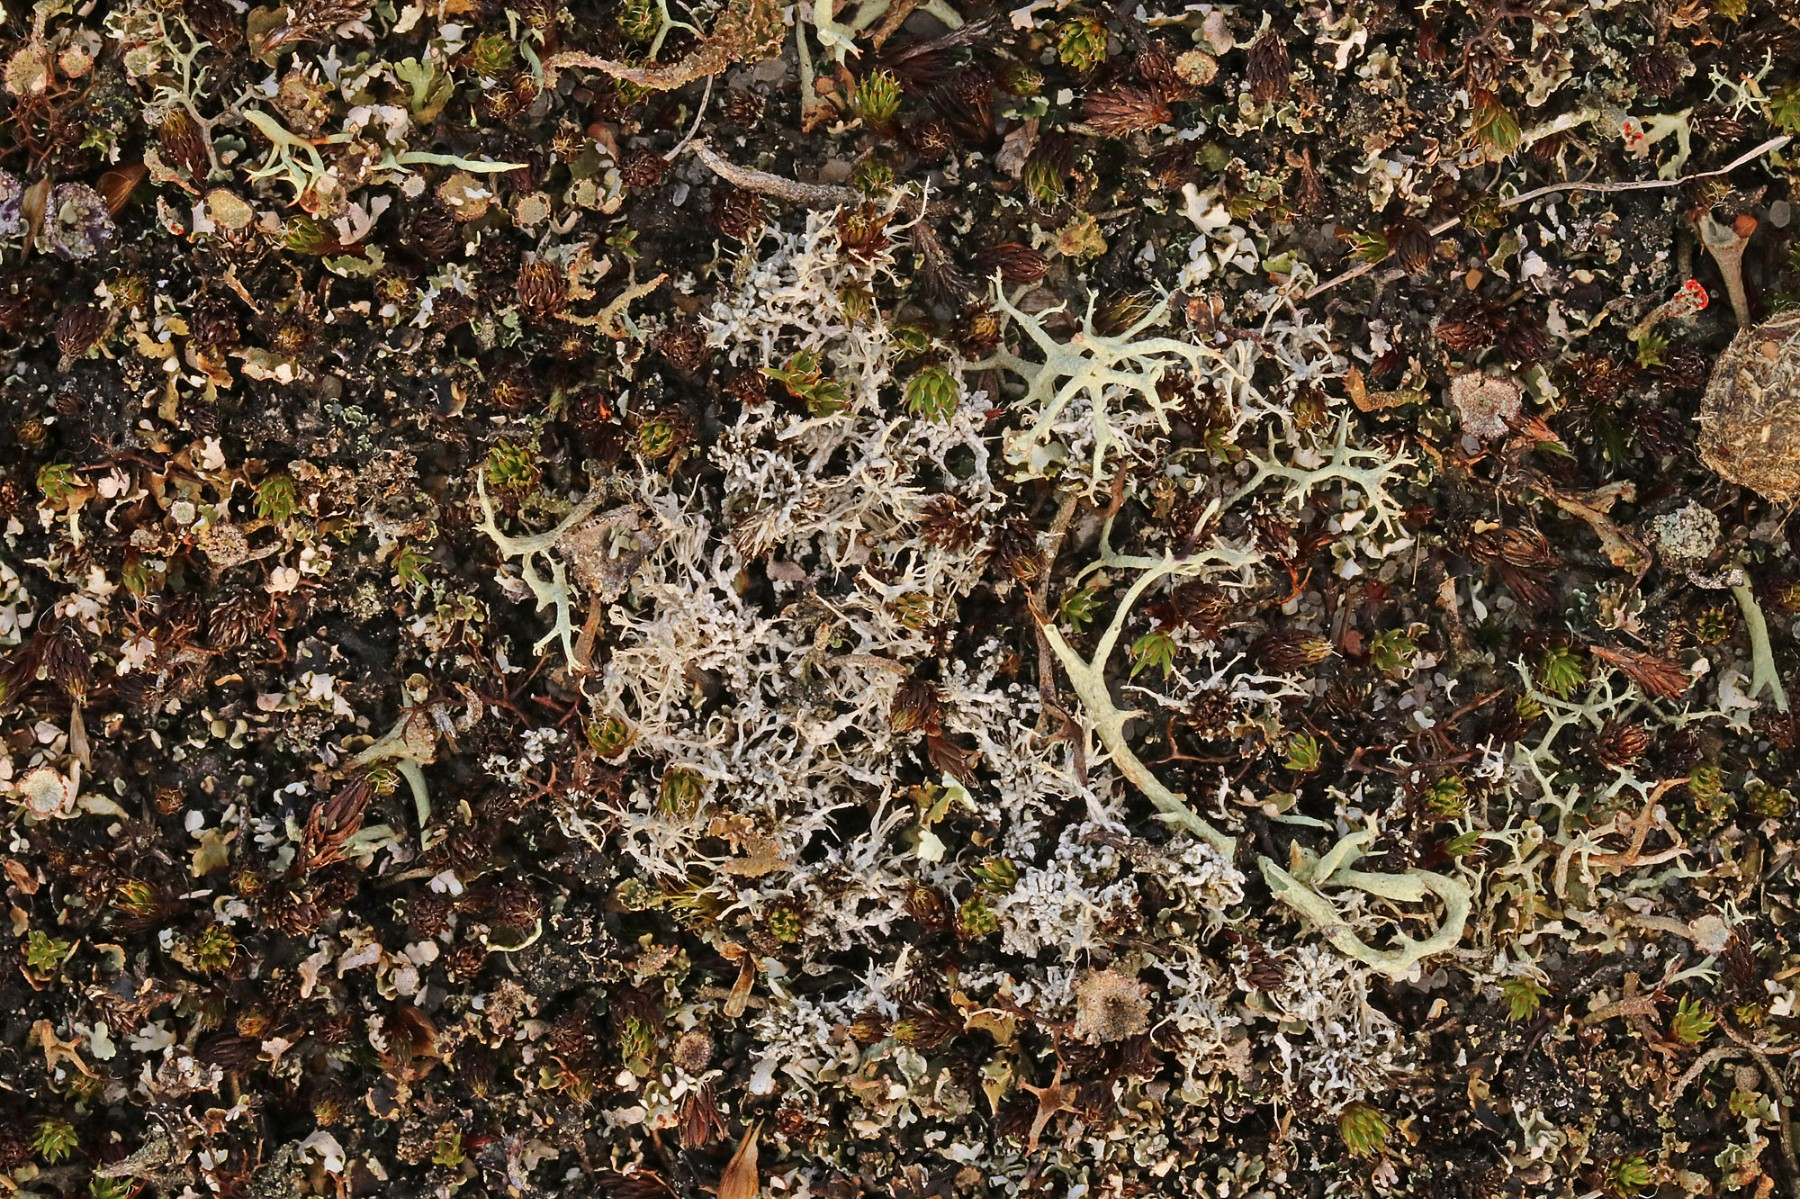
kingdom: Fungi
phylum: Ascomycota
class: Lecanoromycetes
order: Pertusariales
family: Ochrolechiaceae
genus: Ochrolechia
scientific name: Ochrolechia frigida
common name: fjeld-blegskivelav
